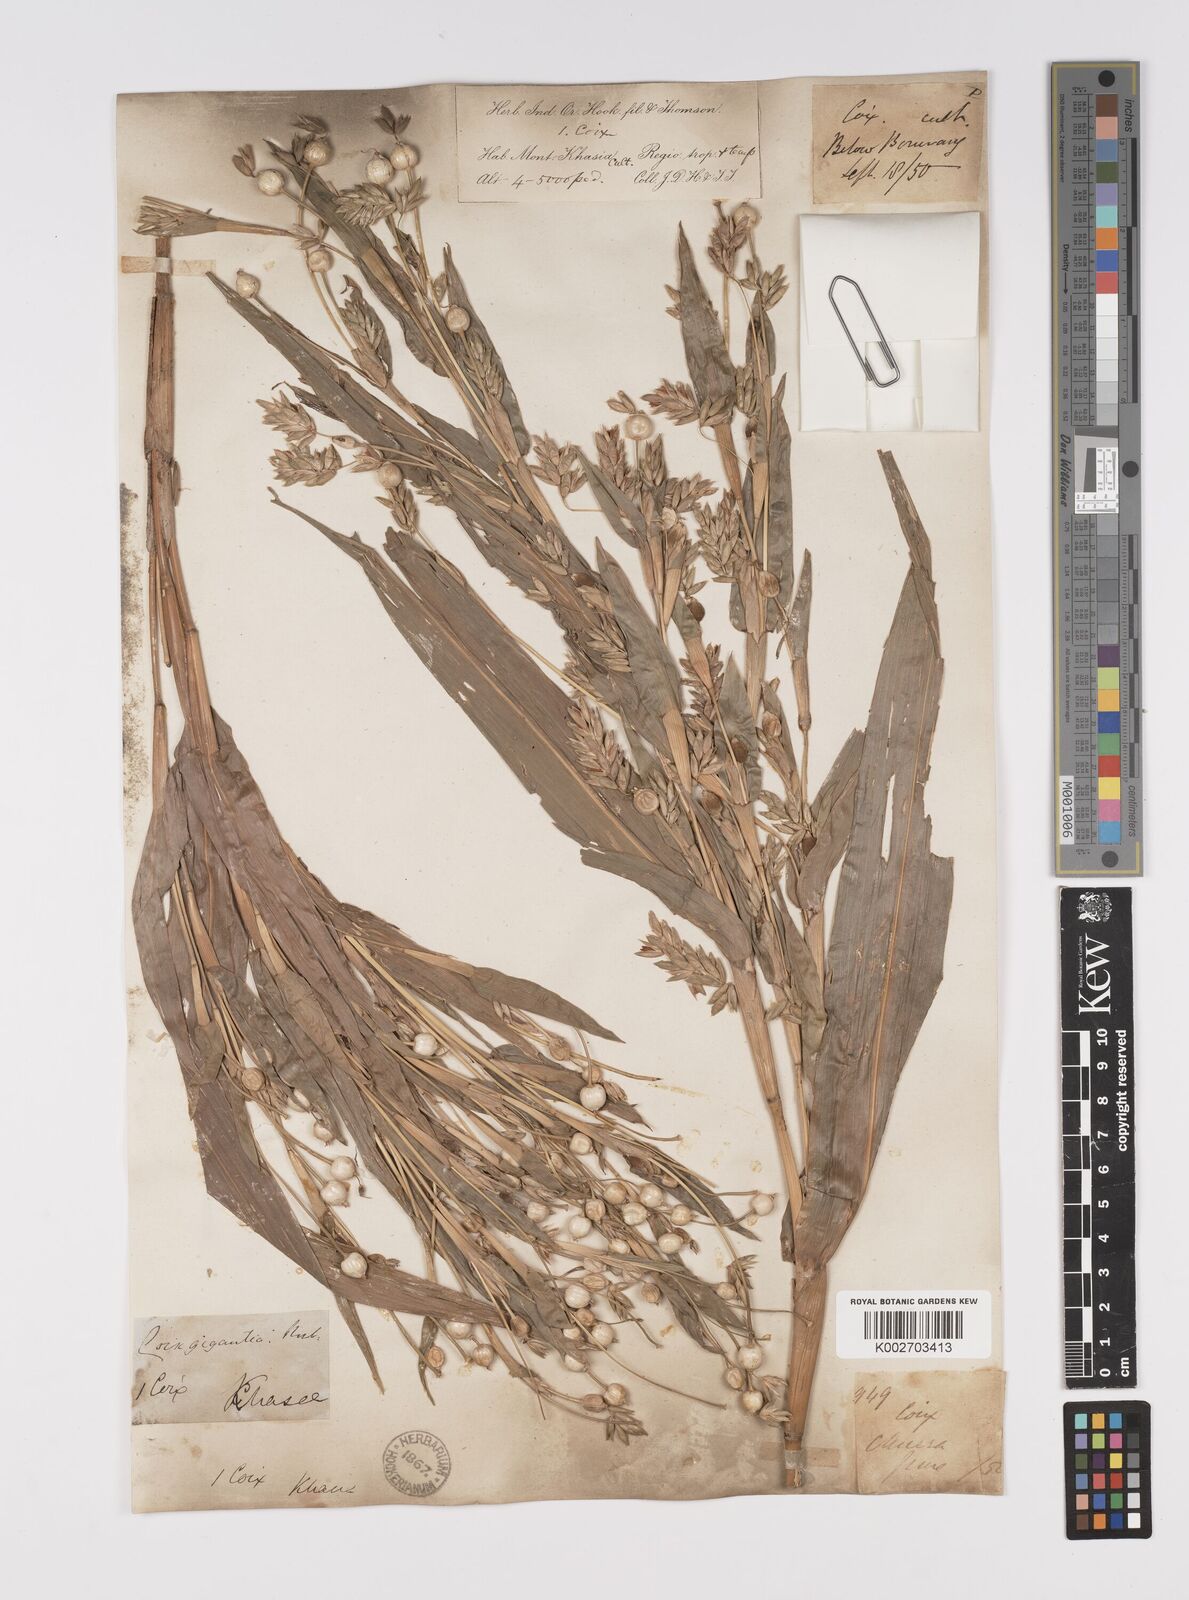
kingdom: Plantae
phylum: Tracheophyta
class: Liliopsida
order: Poales
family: Poaceae
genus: Coix
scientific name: Coix lacryma-jobi
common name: Job's tears
